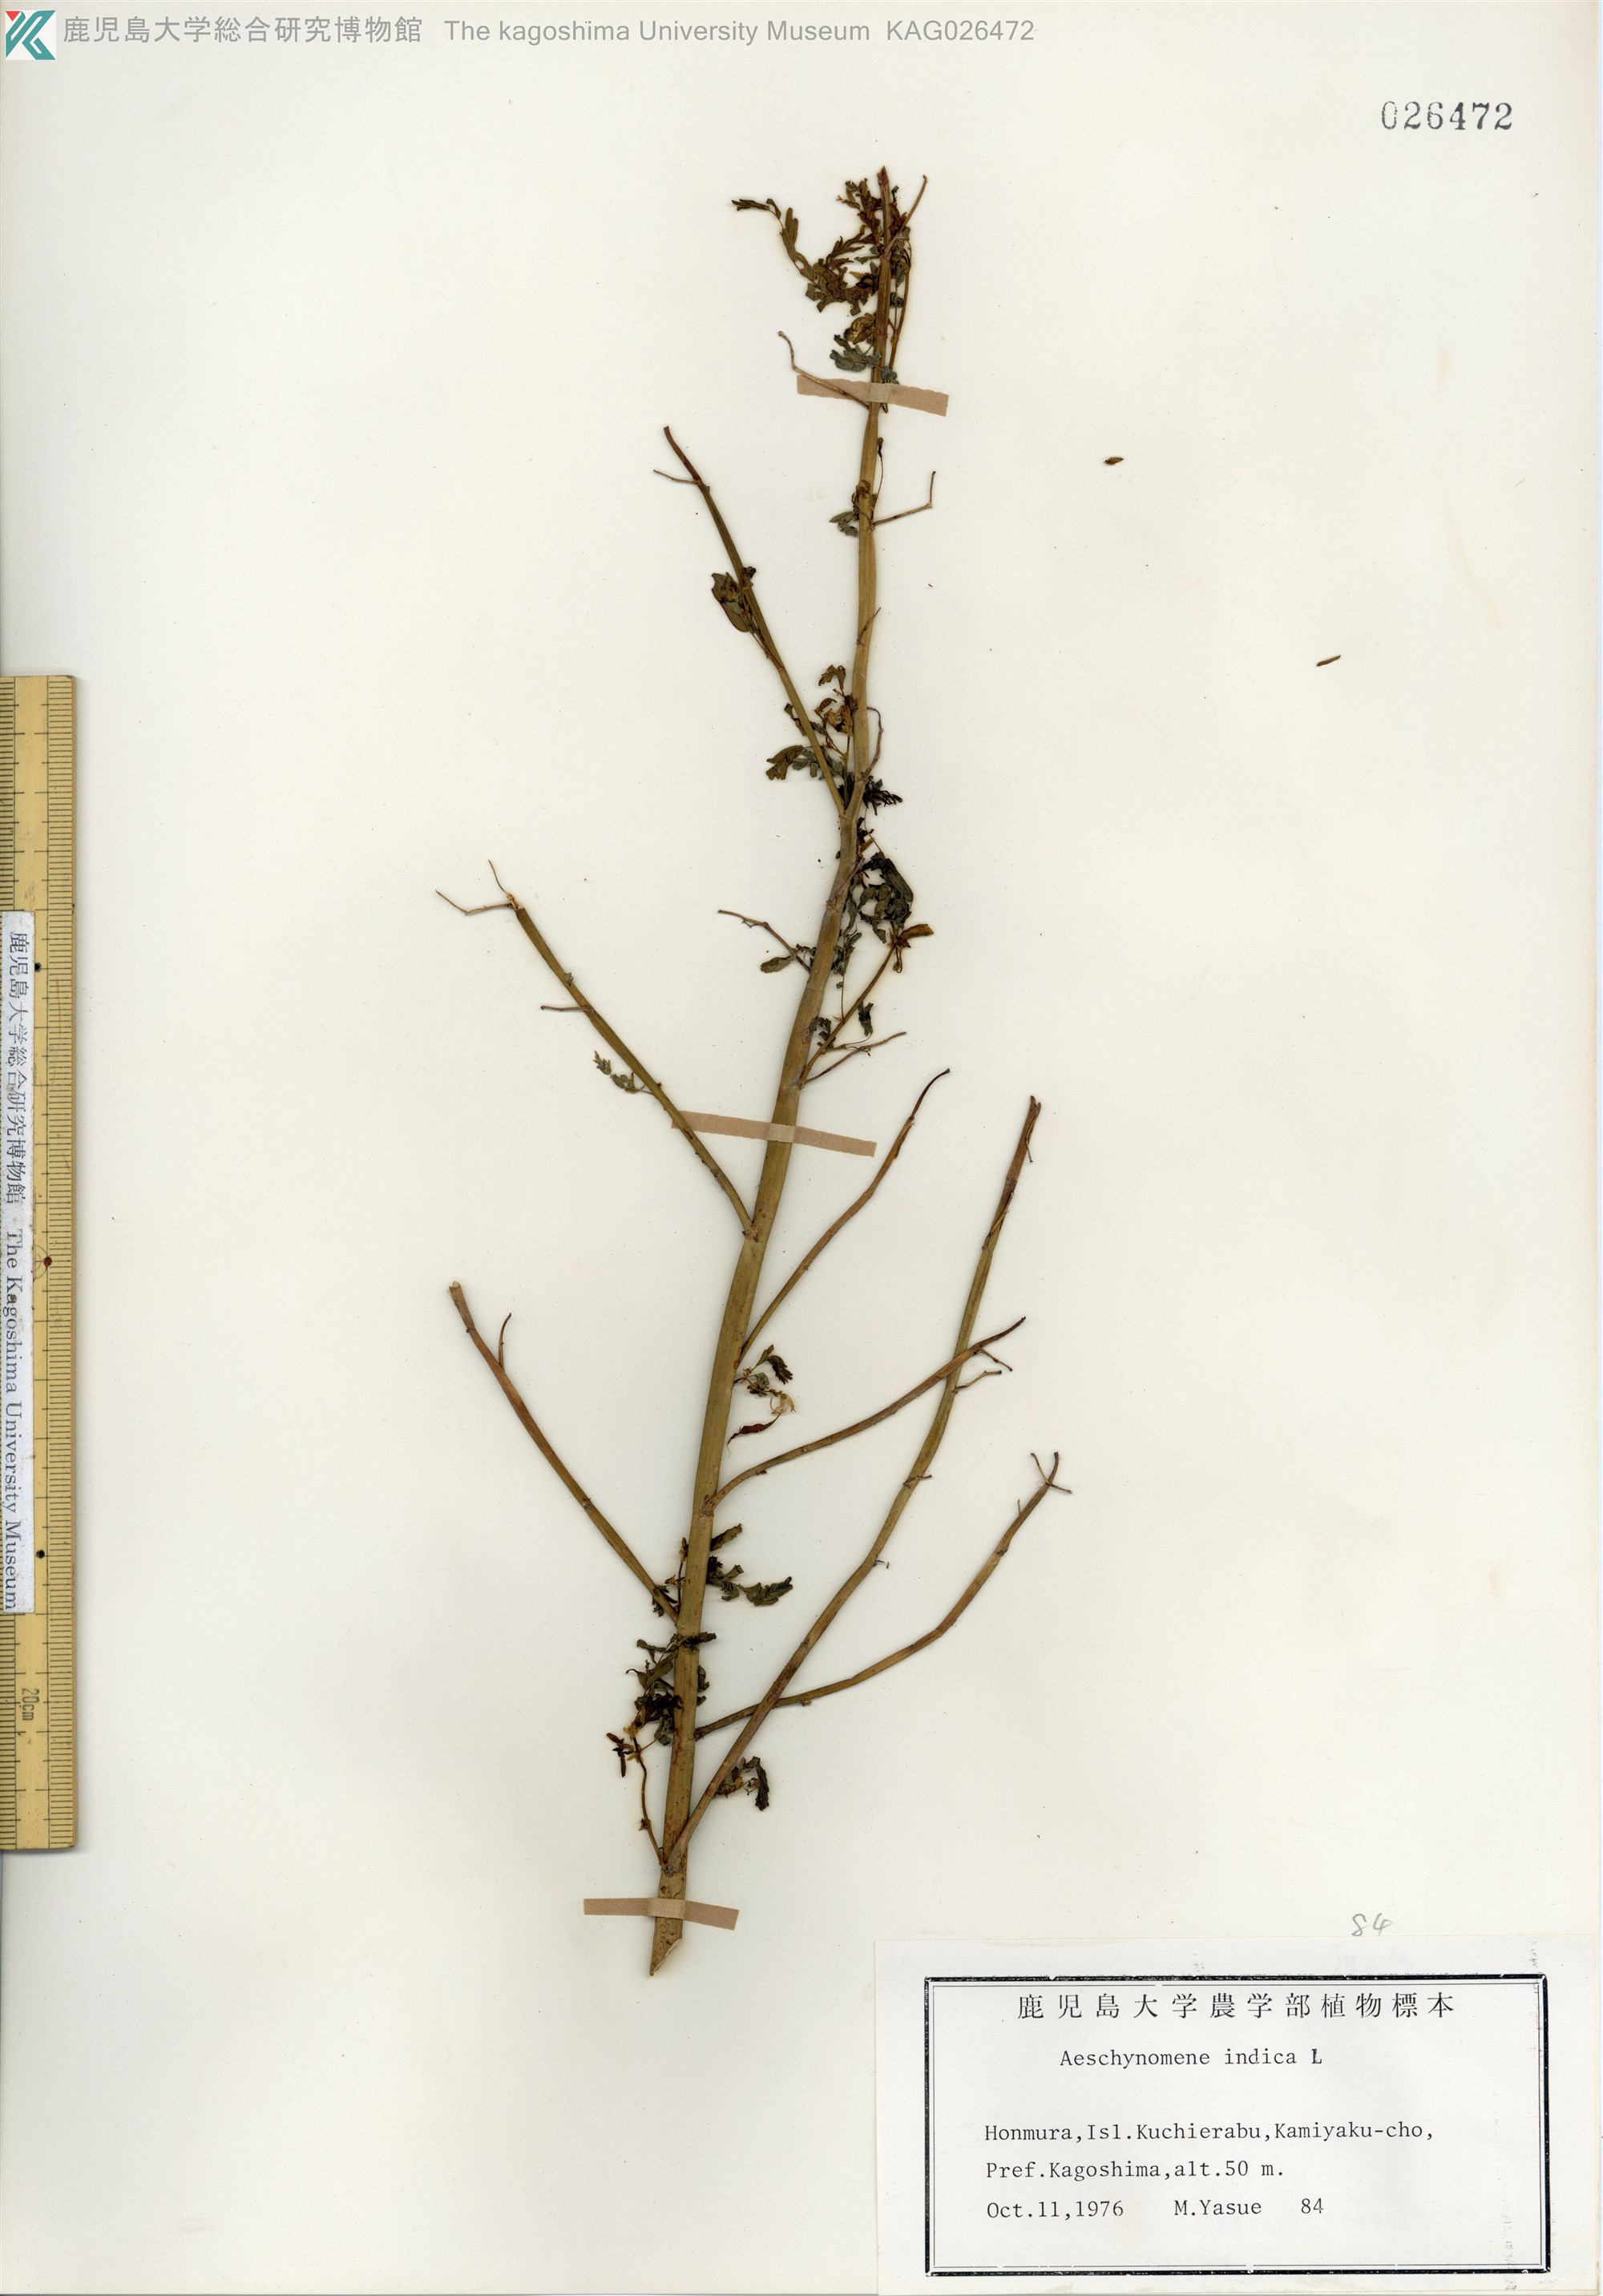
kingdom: Plantae
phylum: Tracheophyta
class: Magnoliopsida
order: Fabales
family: Fabaceae
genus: Aeschynomene
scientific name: Aeschynomene indica
